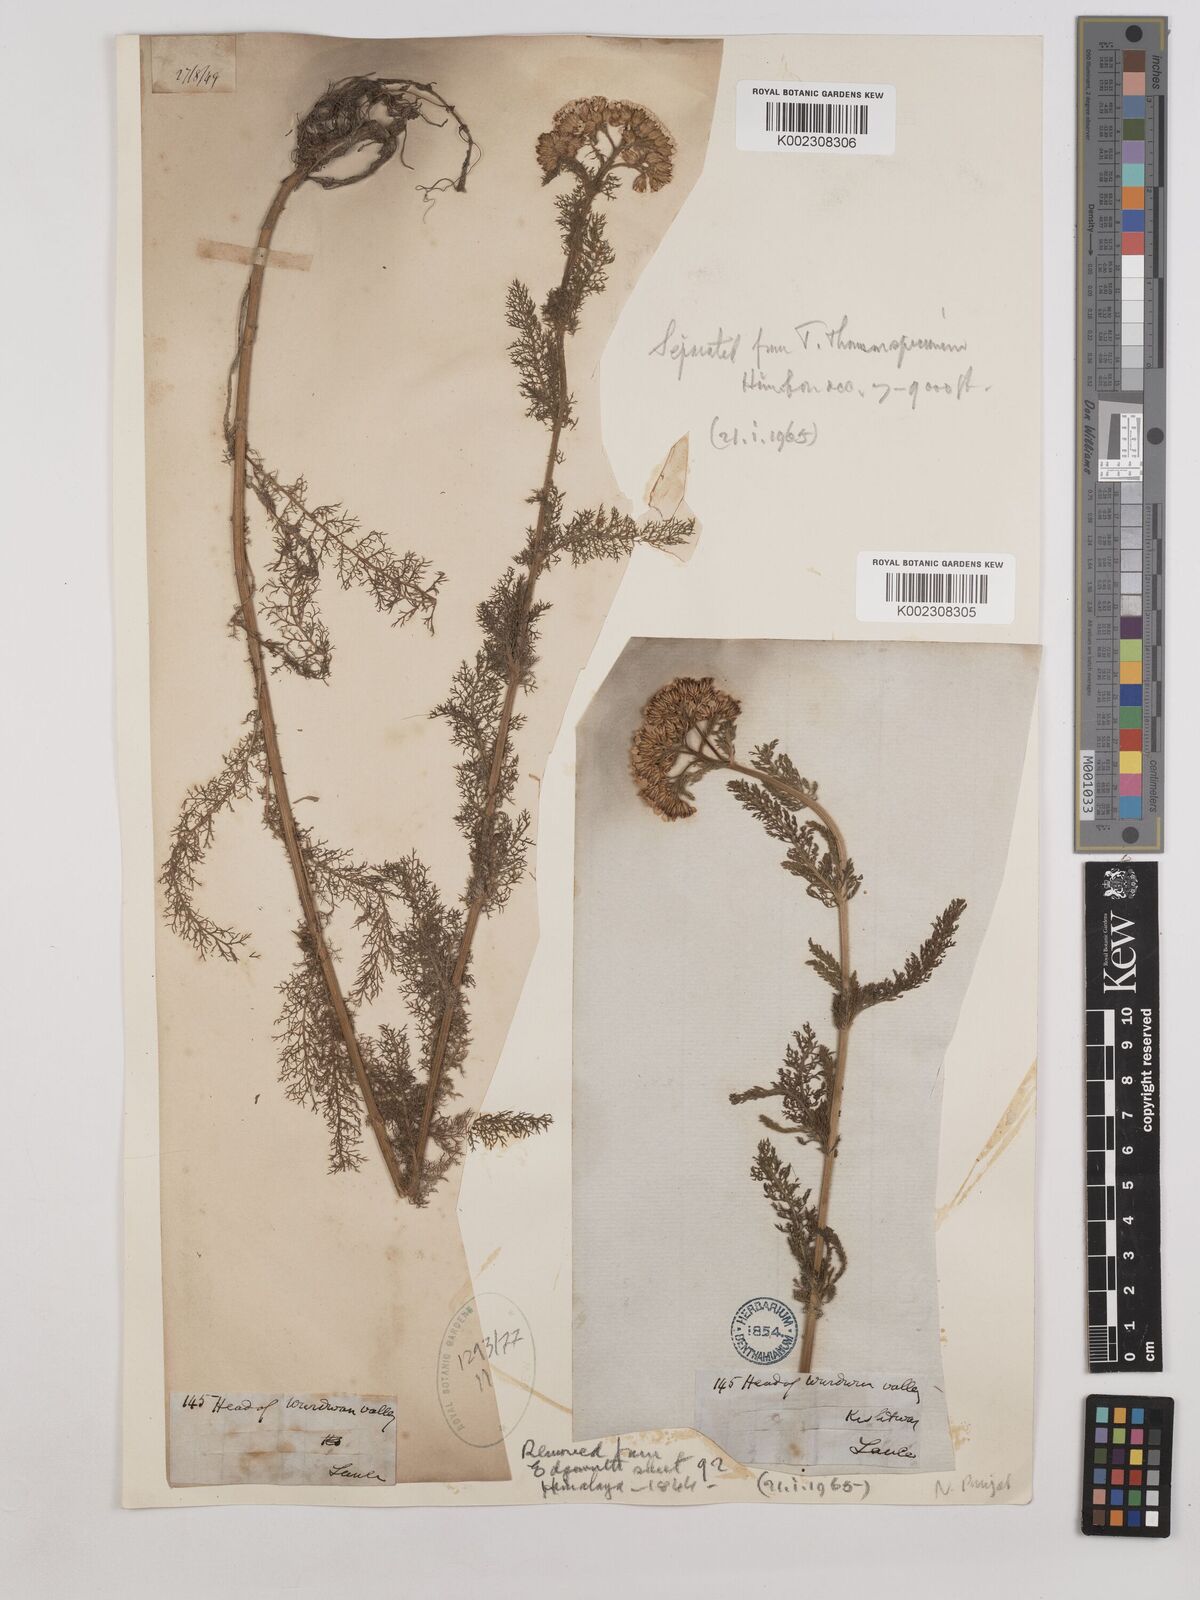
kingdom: Plantae
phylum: Tracheophyta
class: Magnoliopsida
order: Asterales
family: Asteraceae
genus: Achillea
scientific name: Achillea millefolium
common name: Yarrow
